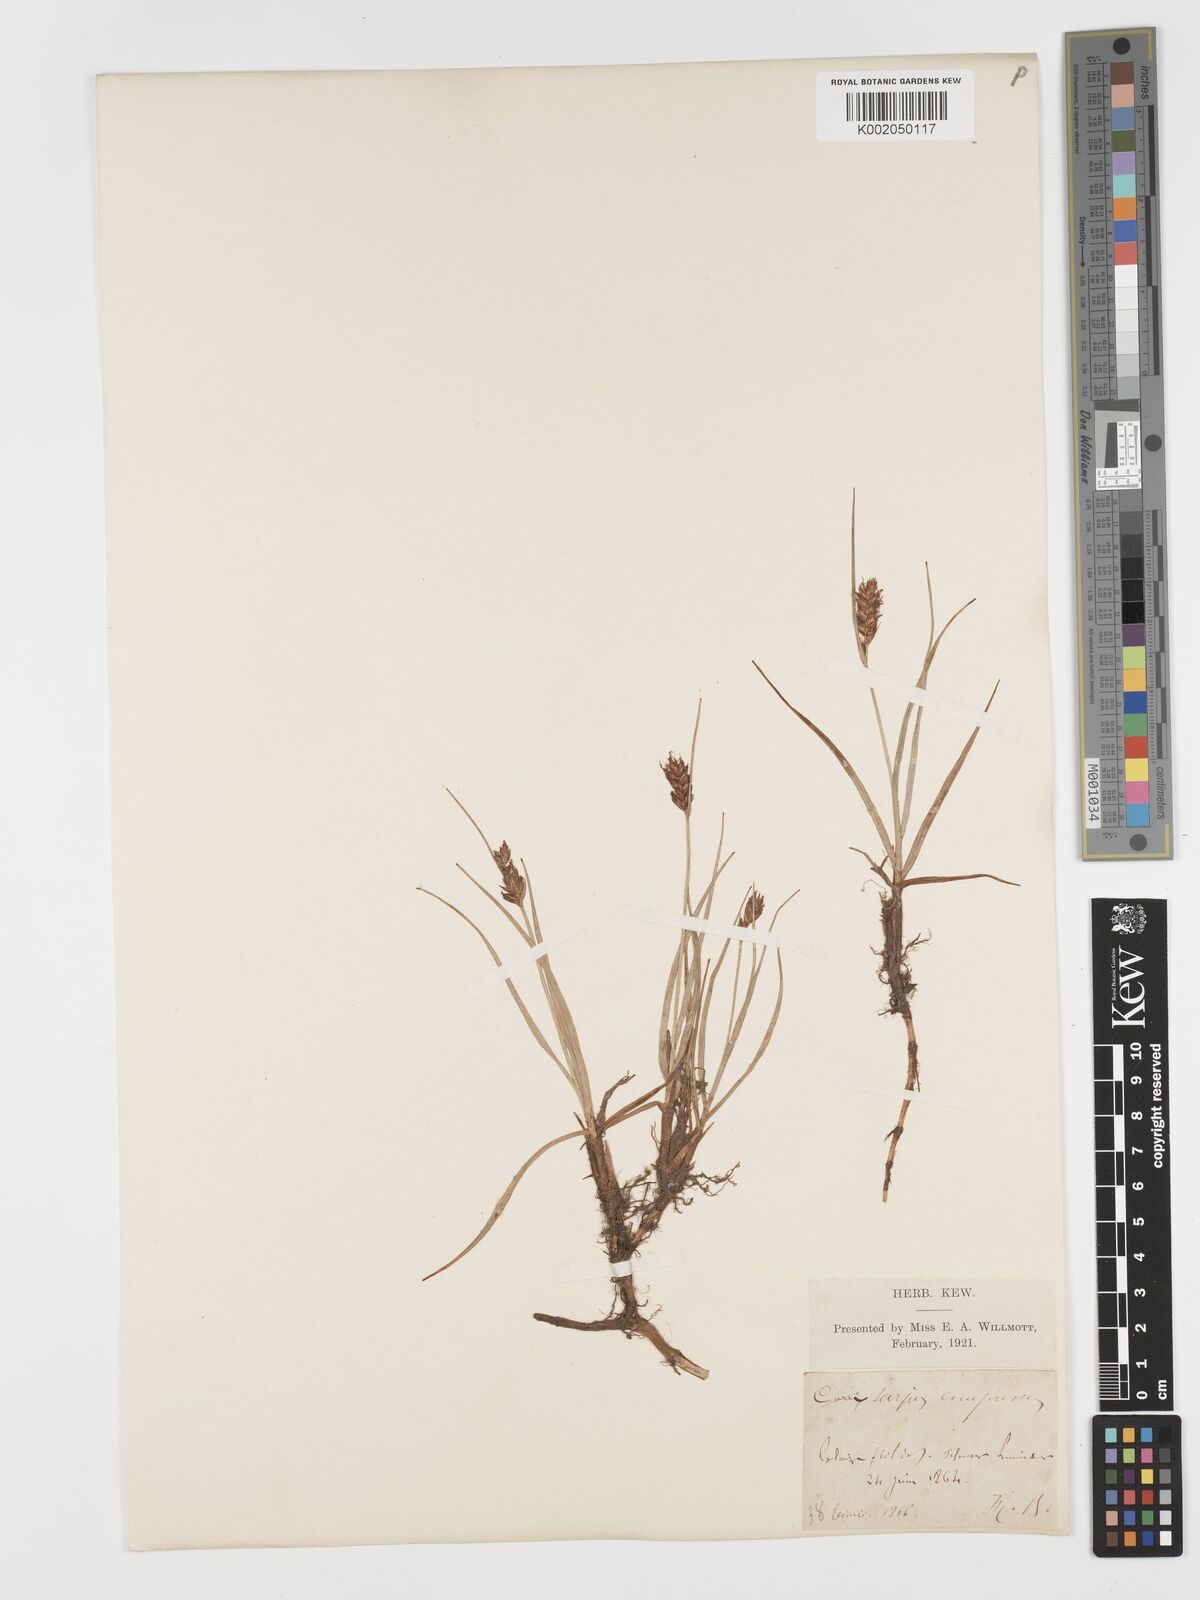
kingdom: Plantae
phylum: Tracheophyta
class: Liliopsida
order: Poales
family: Cyperaceae
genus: Blysmus
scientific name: Blysmus compressus
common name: Flat-sedge
